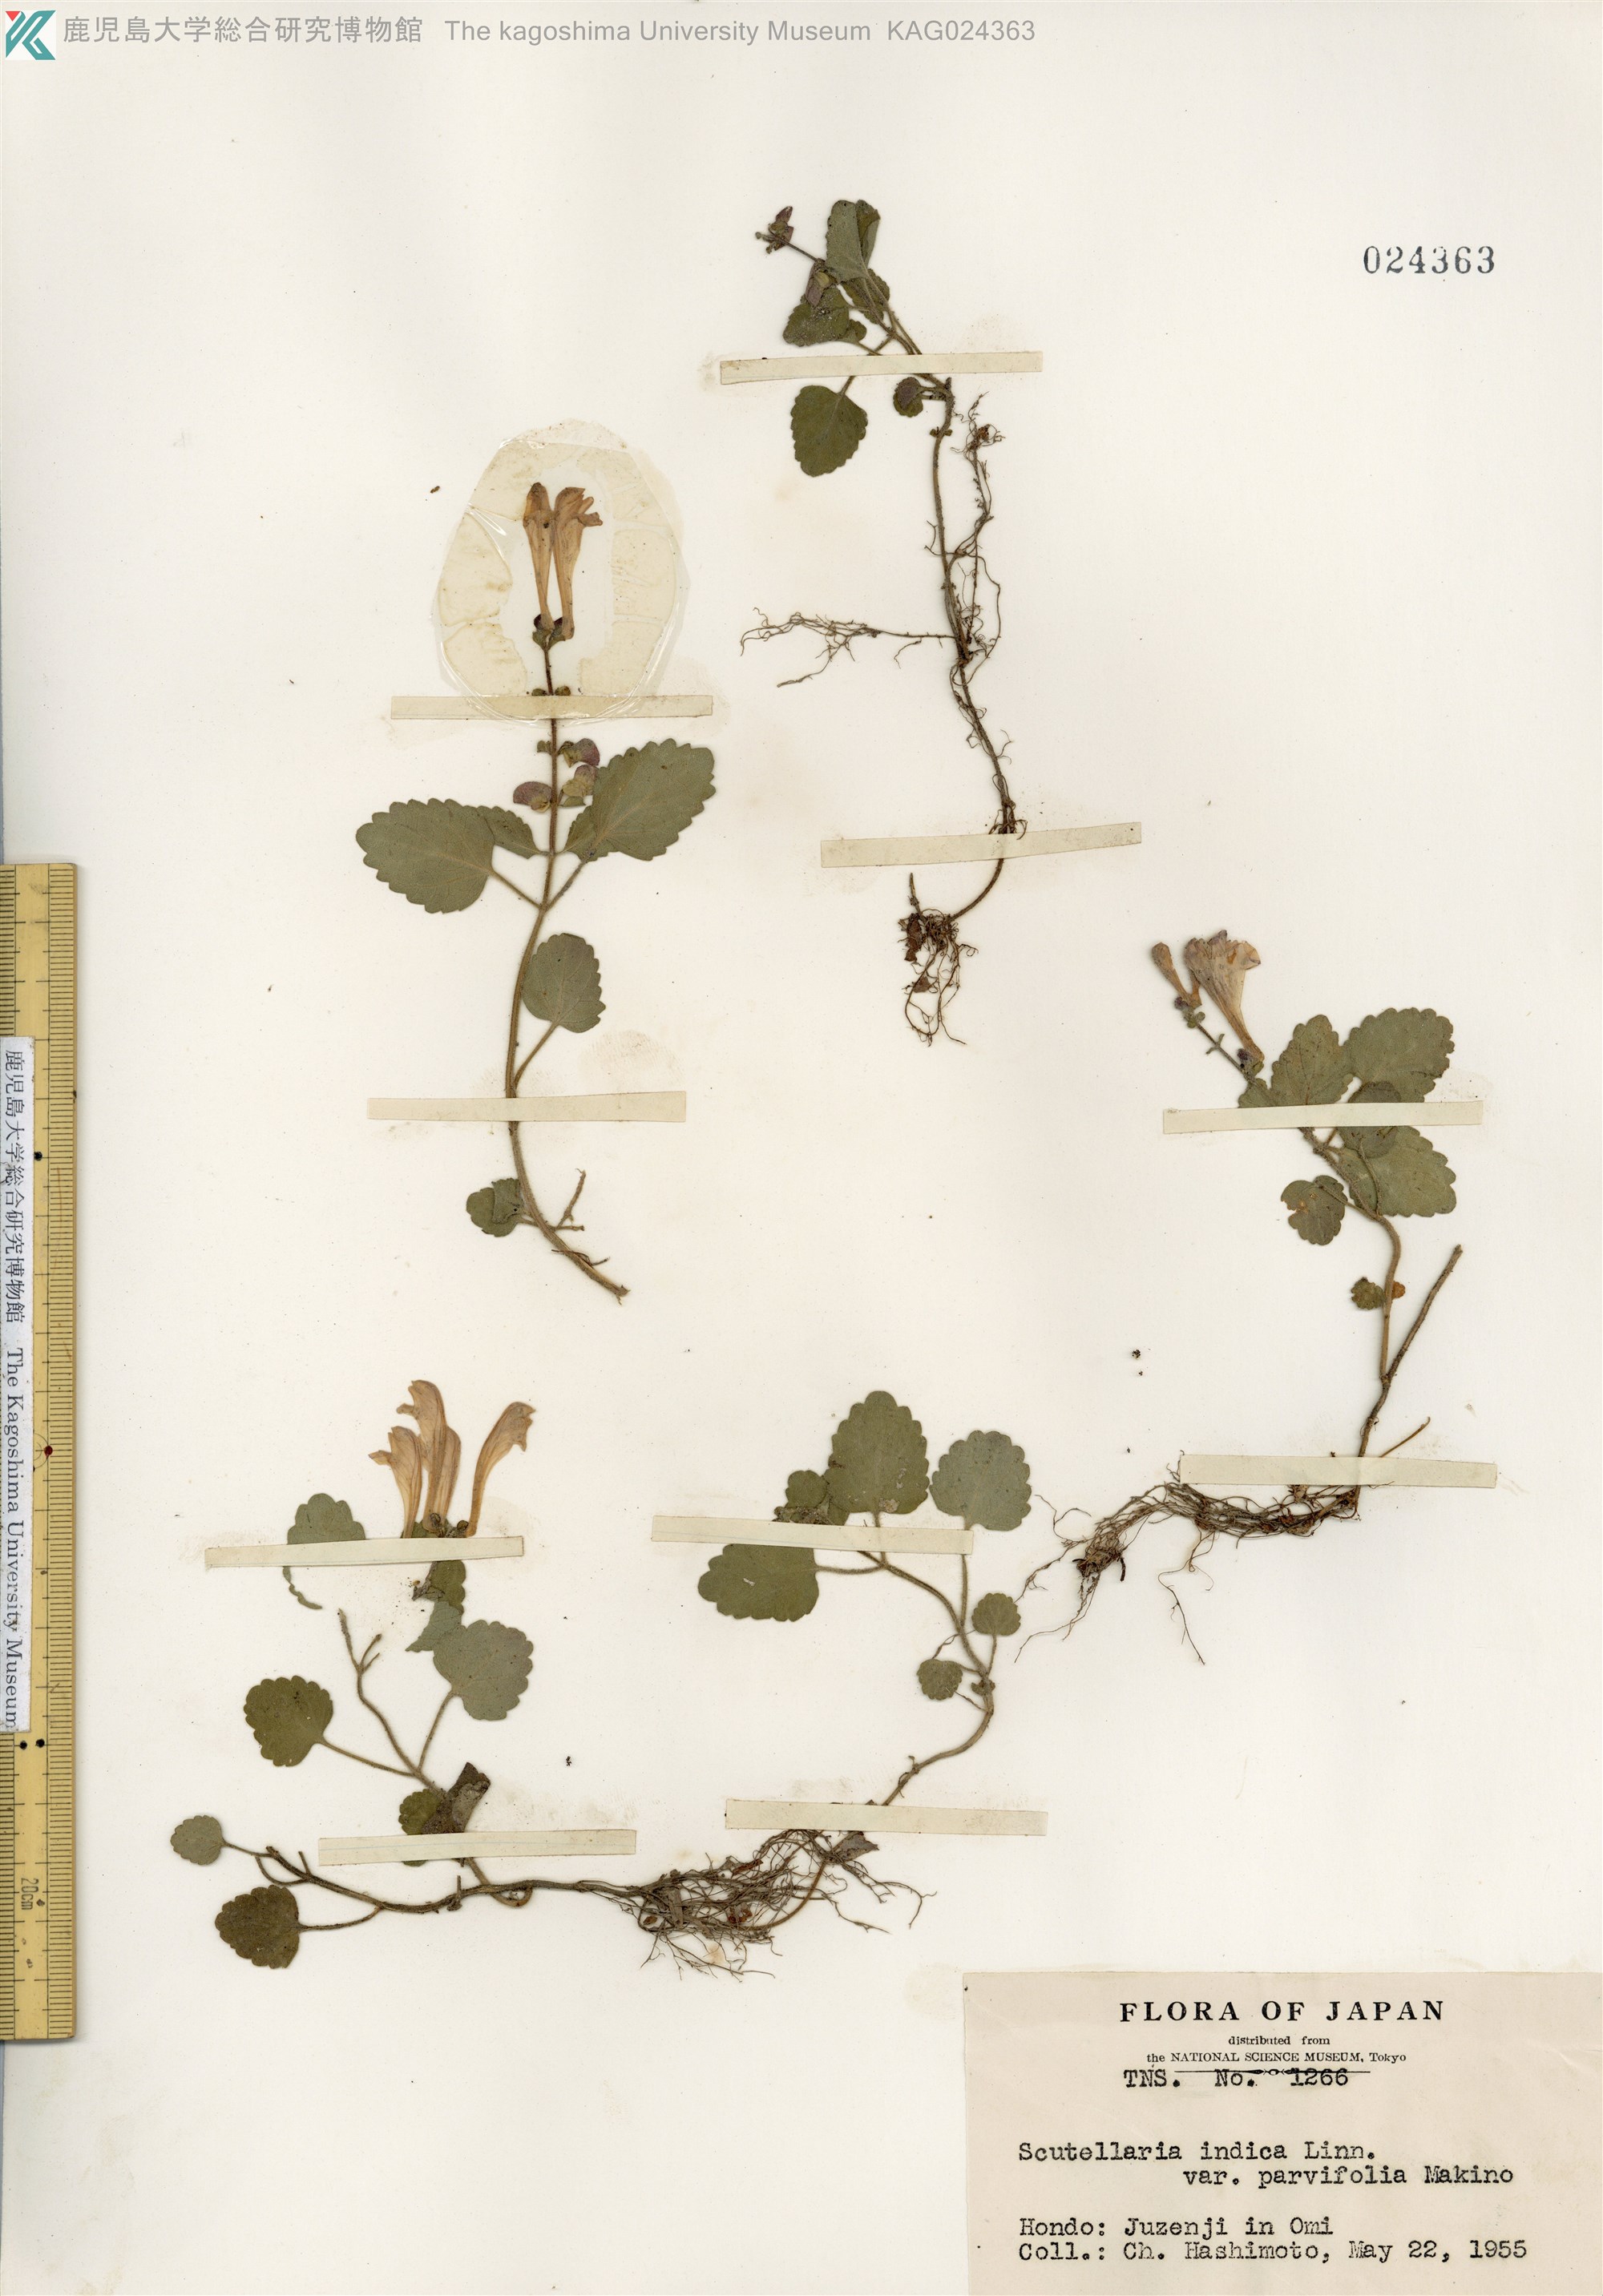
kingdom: Plantae
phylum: Tracheophyta
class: Magnoliopsida
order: Lamiales
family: Lamiaceae
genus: Scutellaria
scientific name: Scutellaria indica
